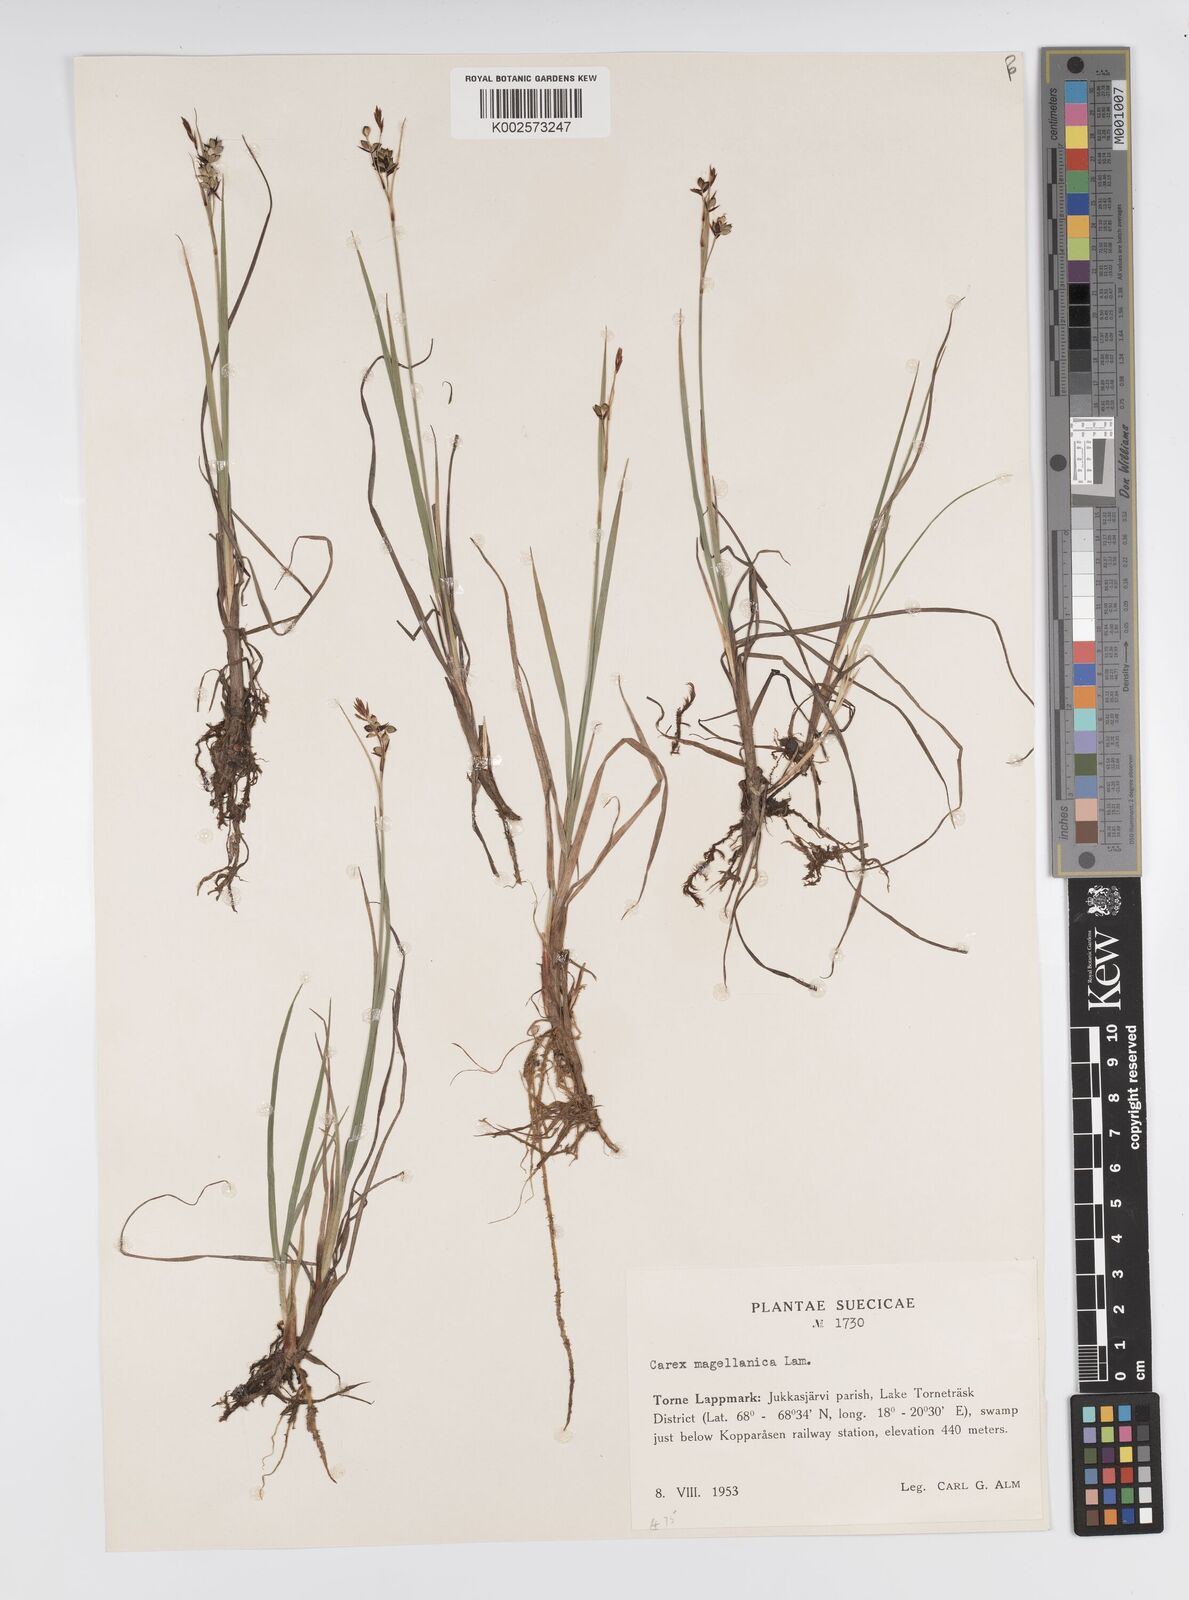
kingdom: Plantae
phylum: Tracheophyta
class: Liliopsida
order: Poales
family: Cyperaceae
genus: Carex
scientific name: Carex magellanica
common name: Bog sedge
